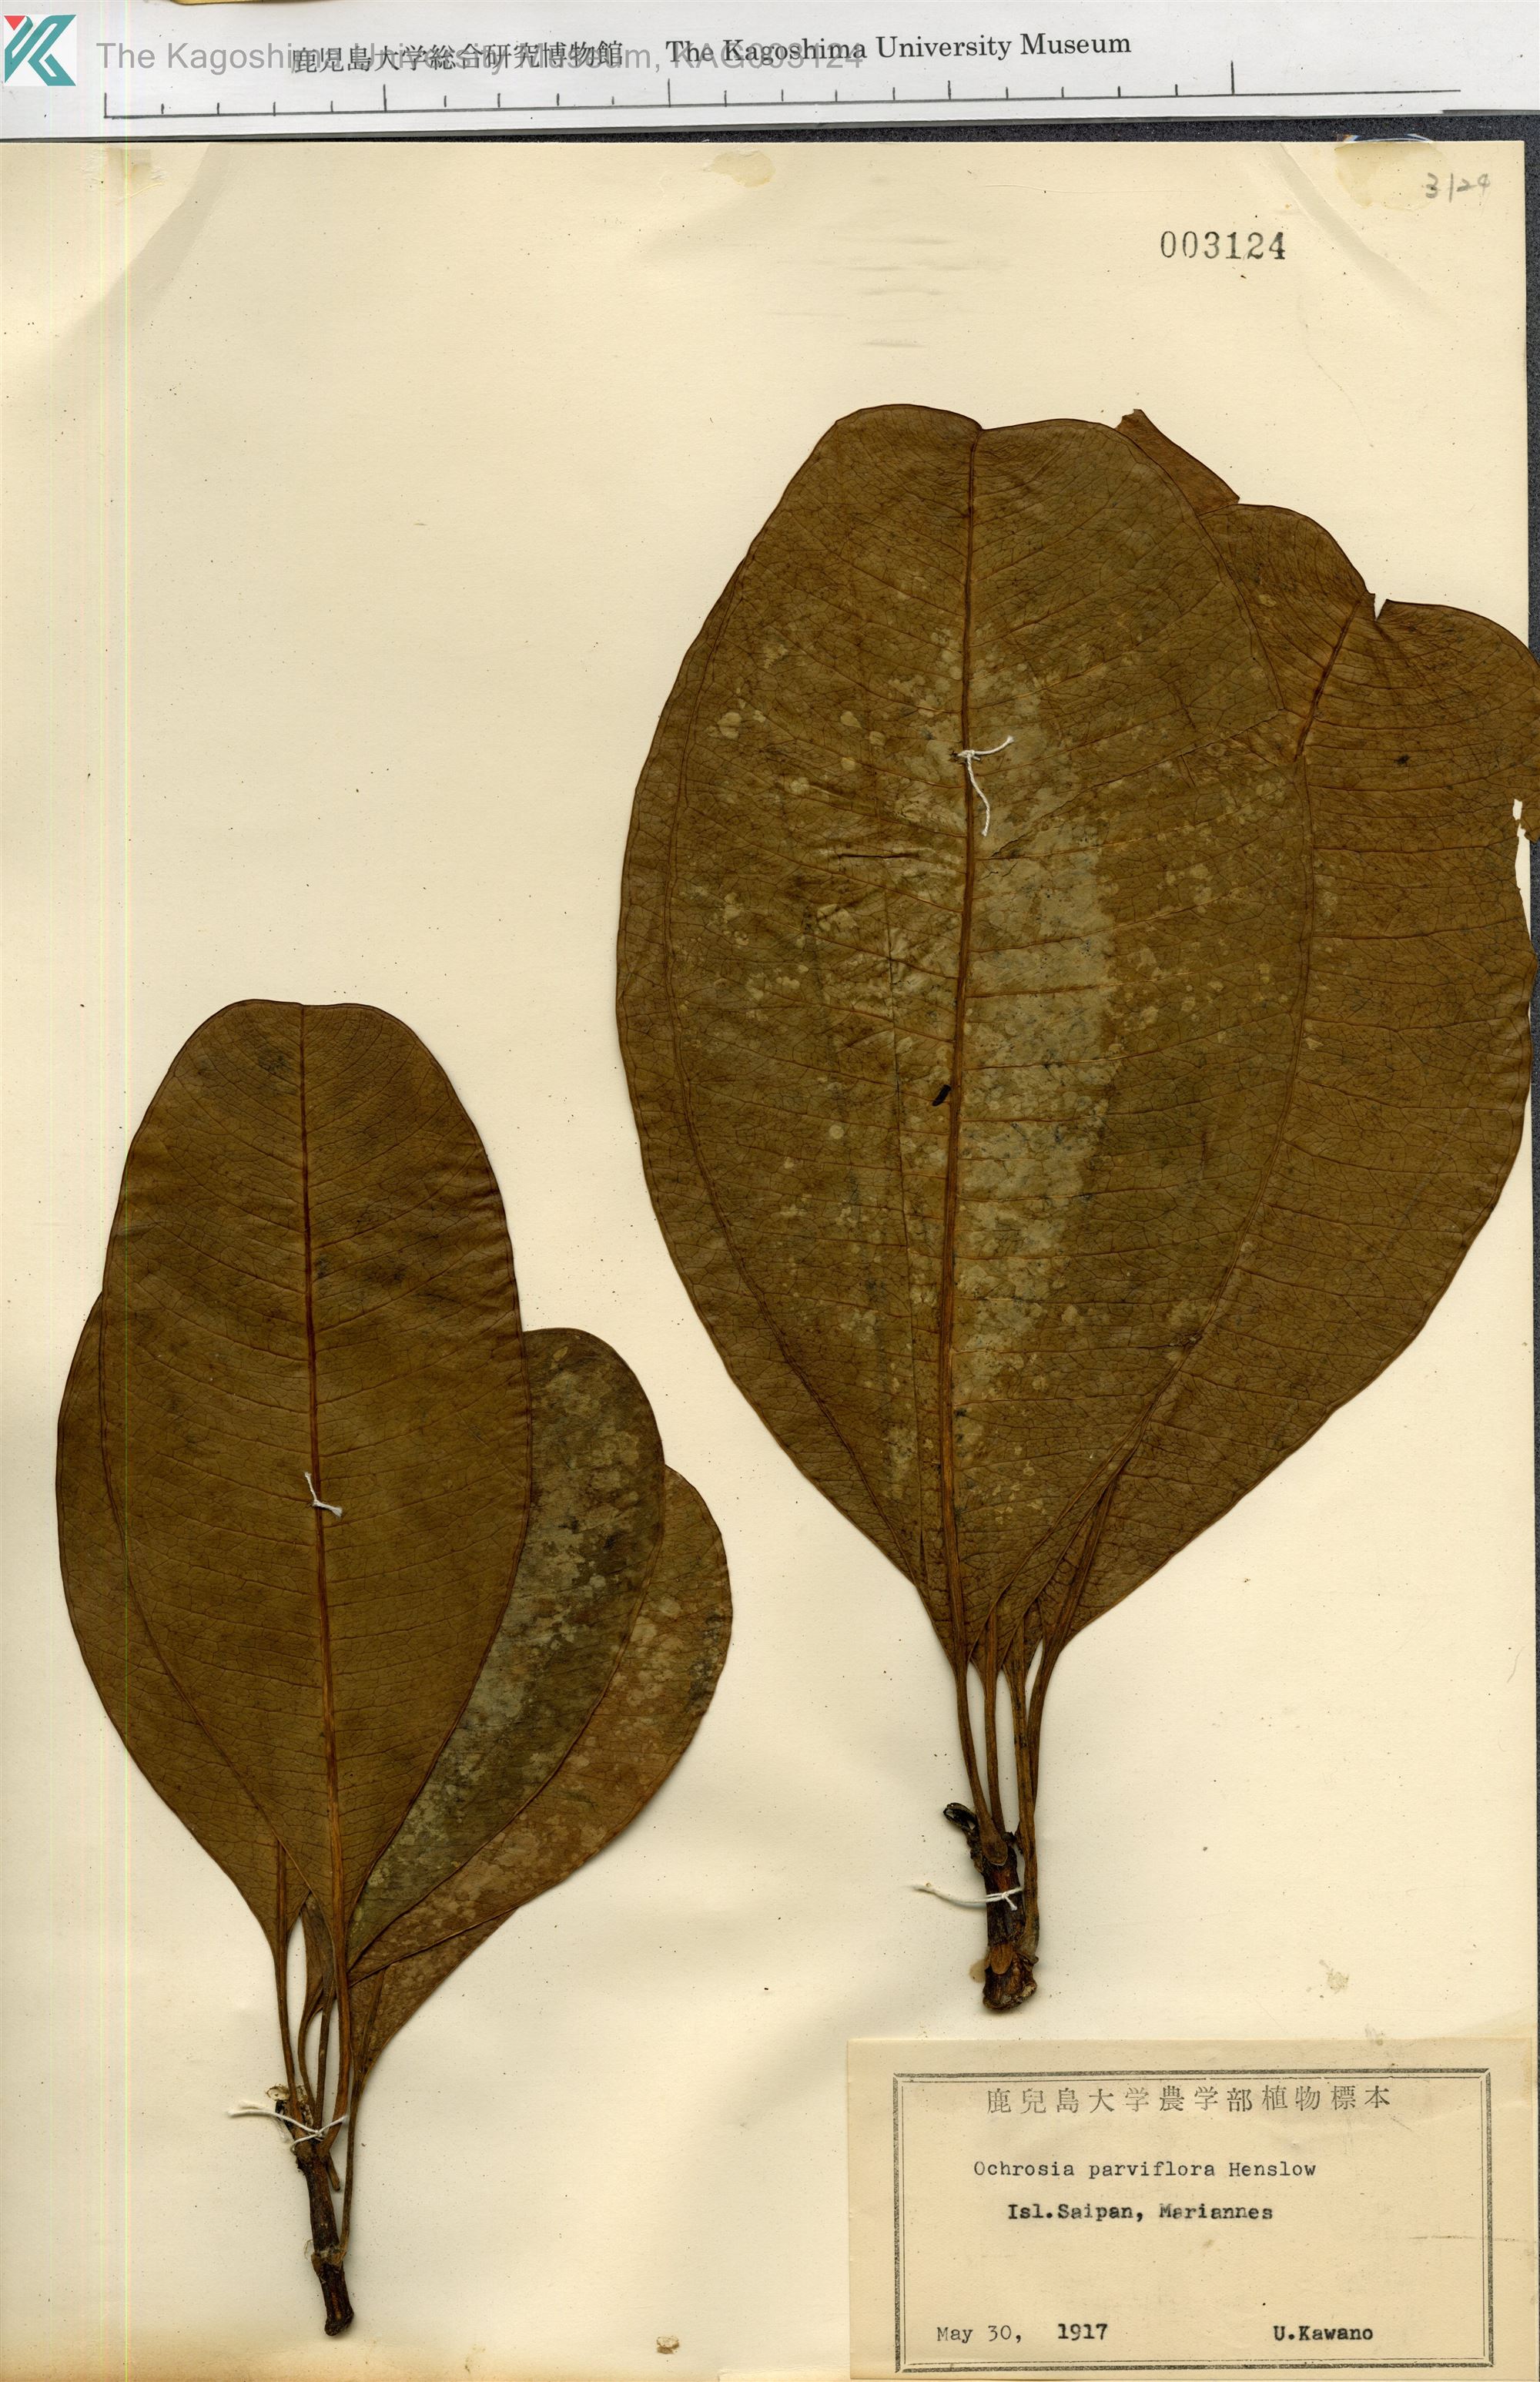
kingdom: Plantae
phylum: Tracheophyta
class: Magnoliopsida
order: Gentianales
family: Apocynaceae
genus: Ochrosia
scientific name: Ochrosia oppositifolia
